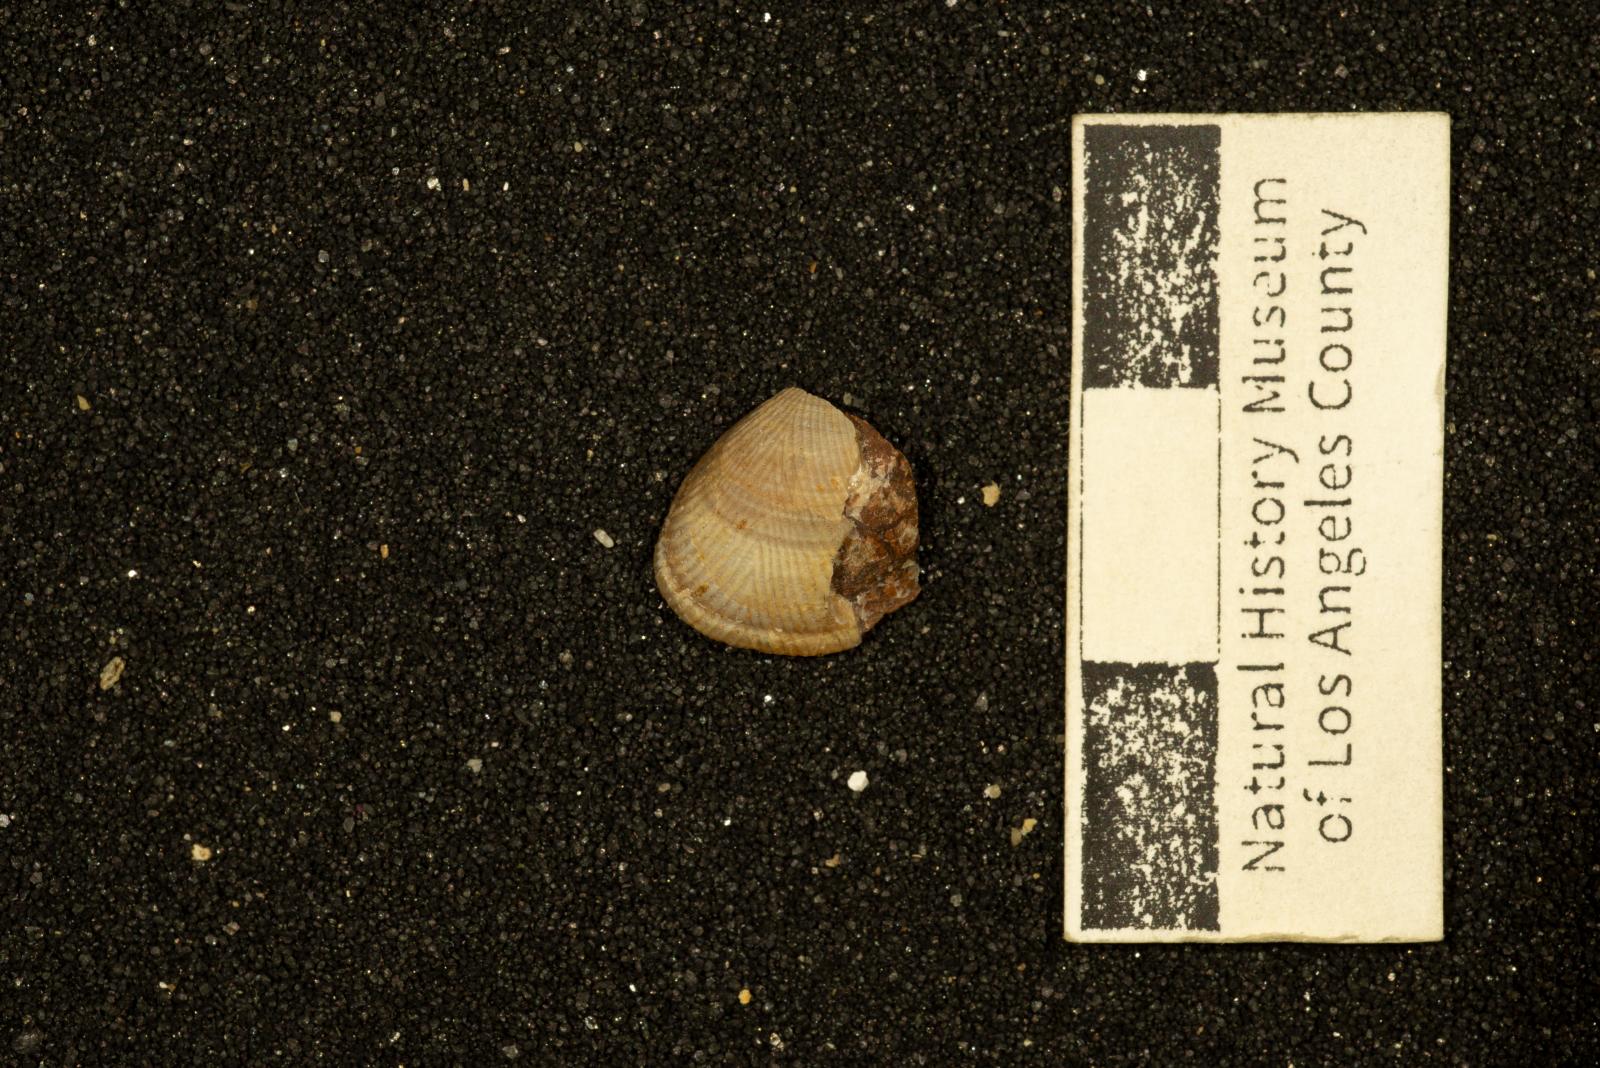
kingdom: Animalia
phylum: Mollusca
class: Bivalvia
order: Nuculida
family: Nuculidae
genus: Acila
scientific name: Acila demessa
